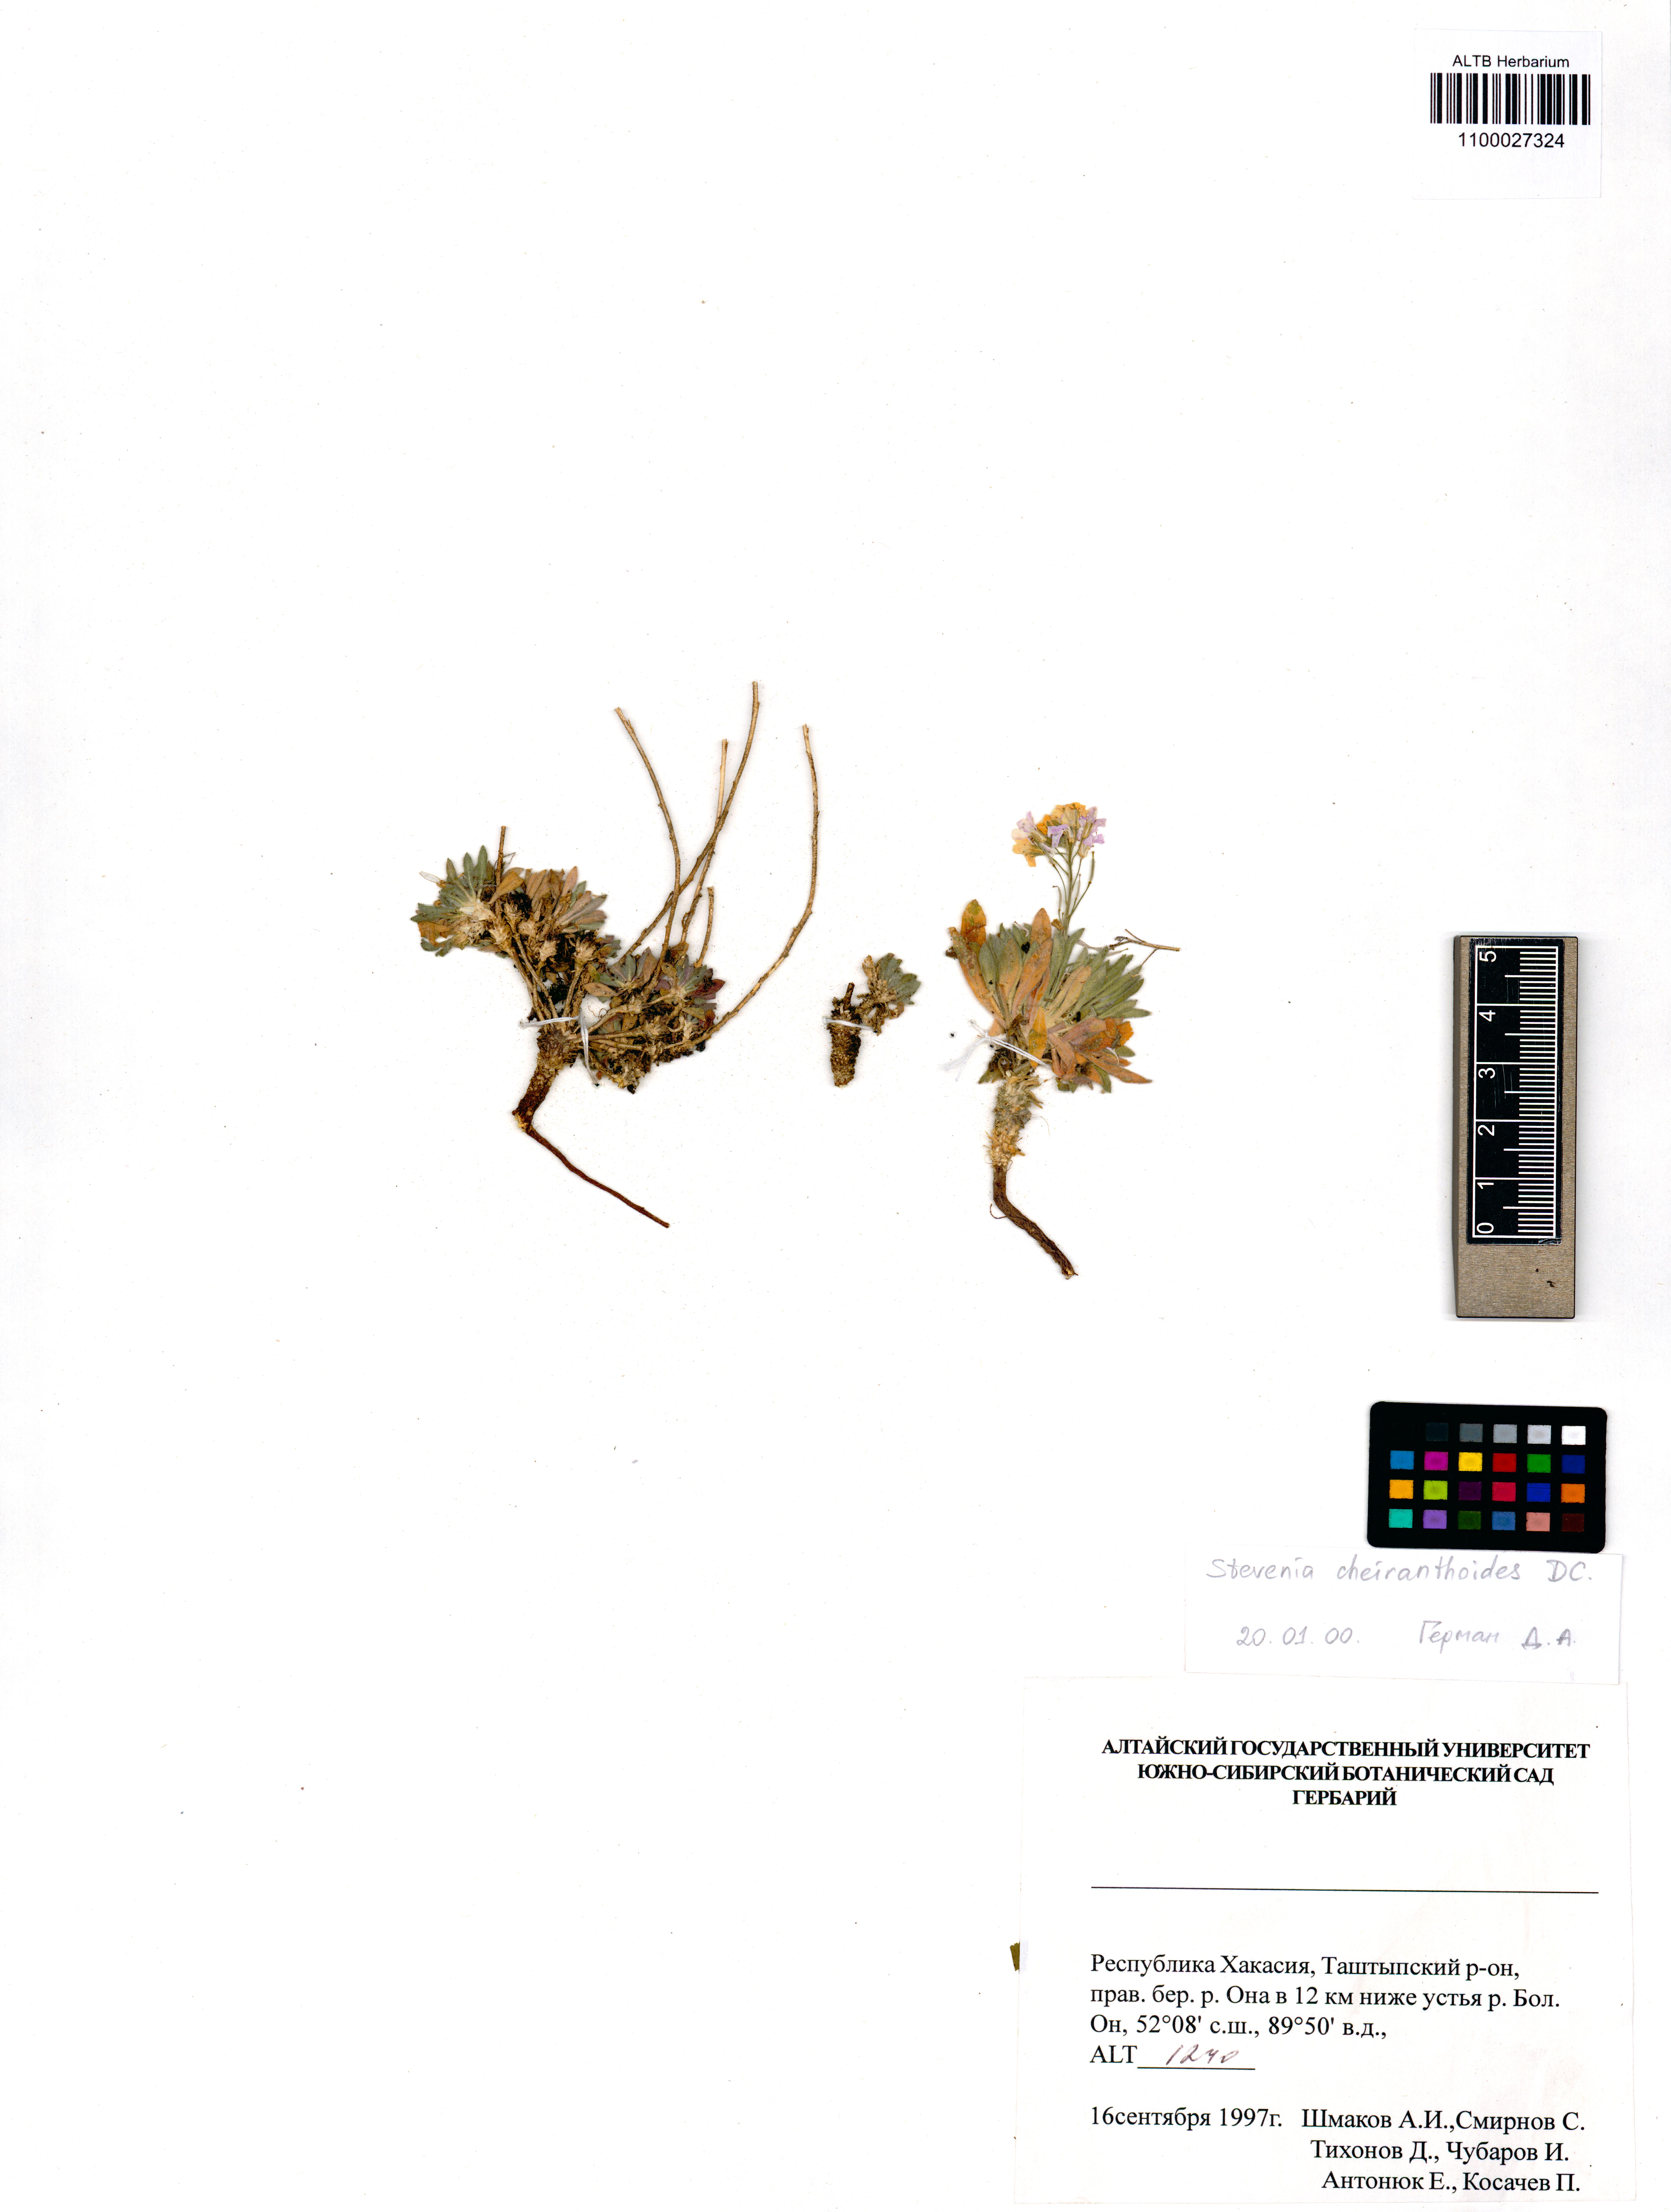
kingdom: Plantae
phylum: Tracheophyta
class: Magnoliopsida
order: Brassicales
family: Brassicaceae
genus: Stevenia
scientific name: Stevenia incarnata
